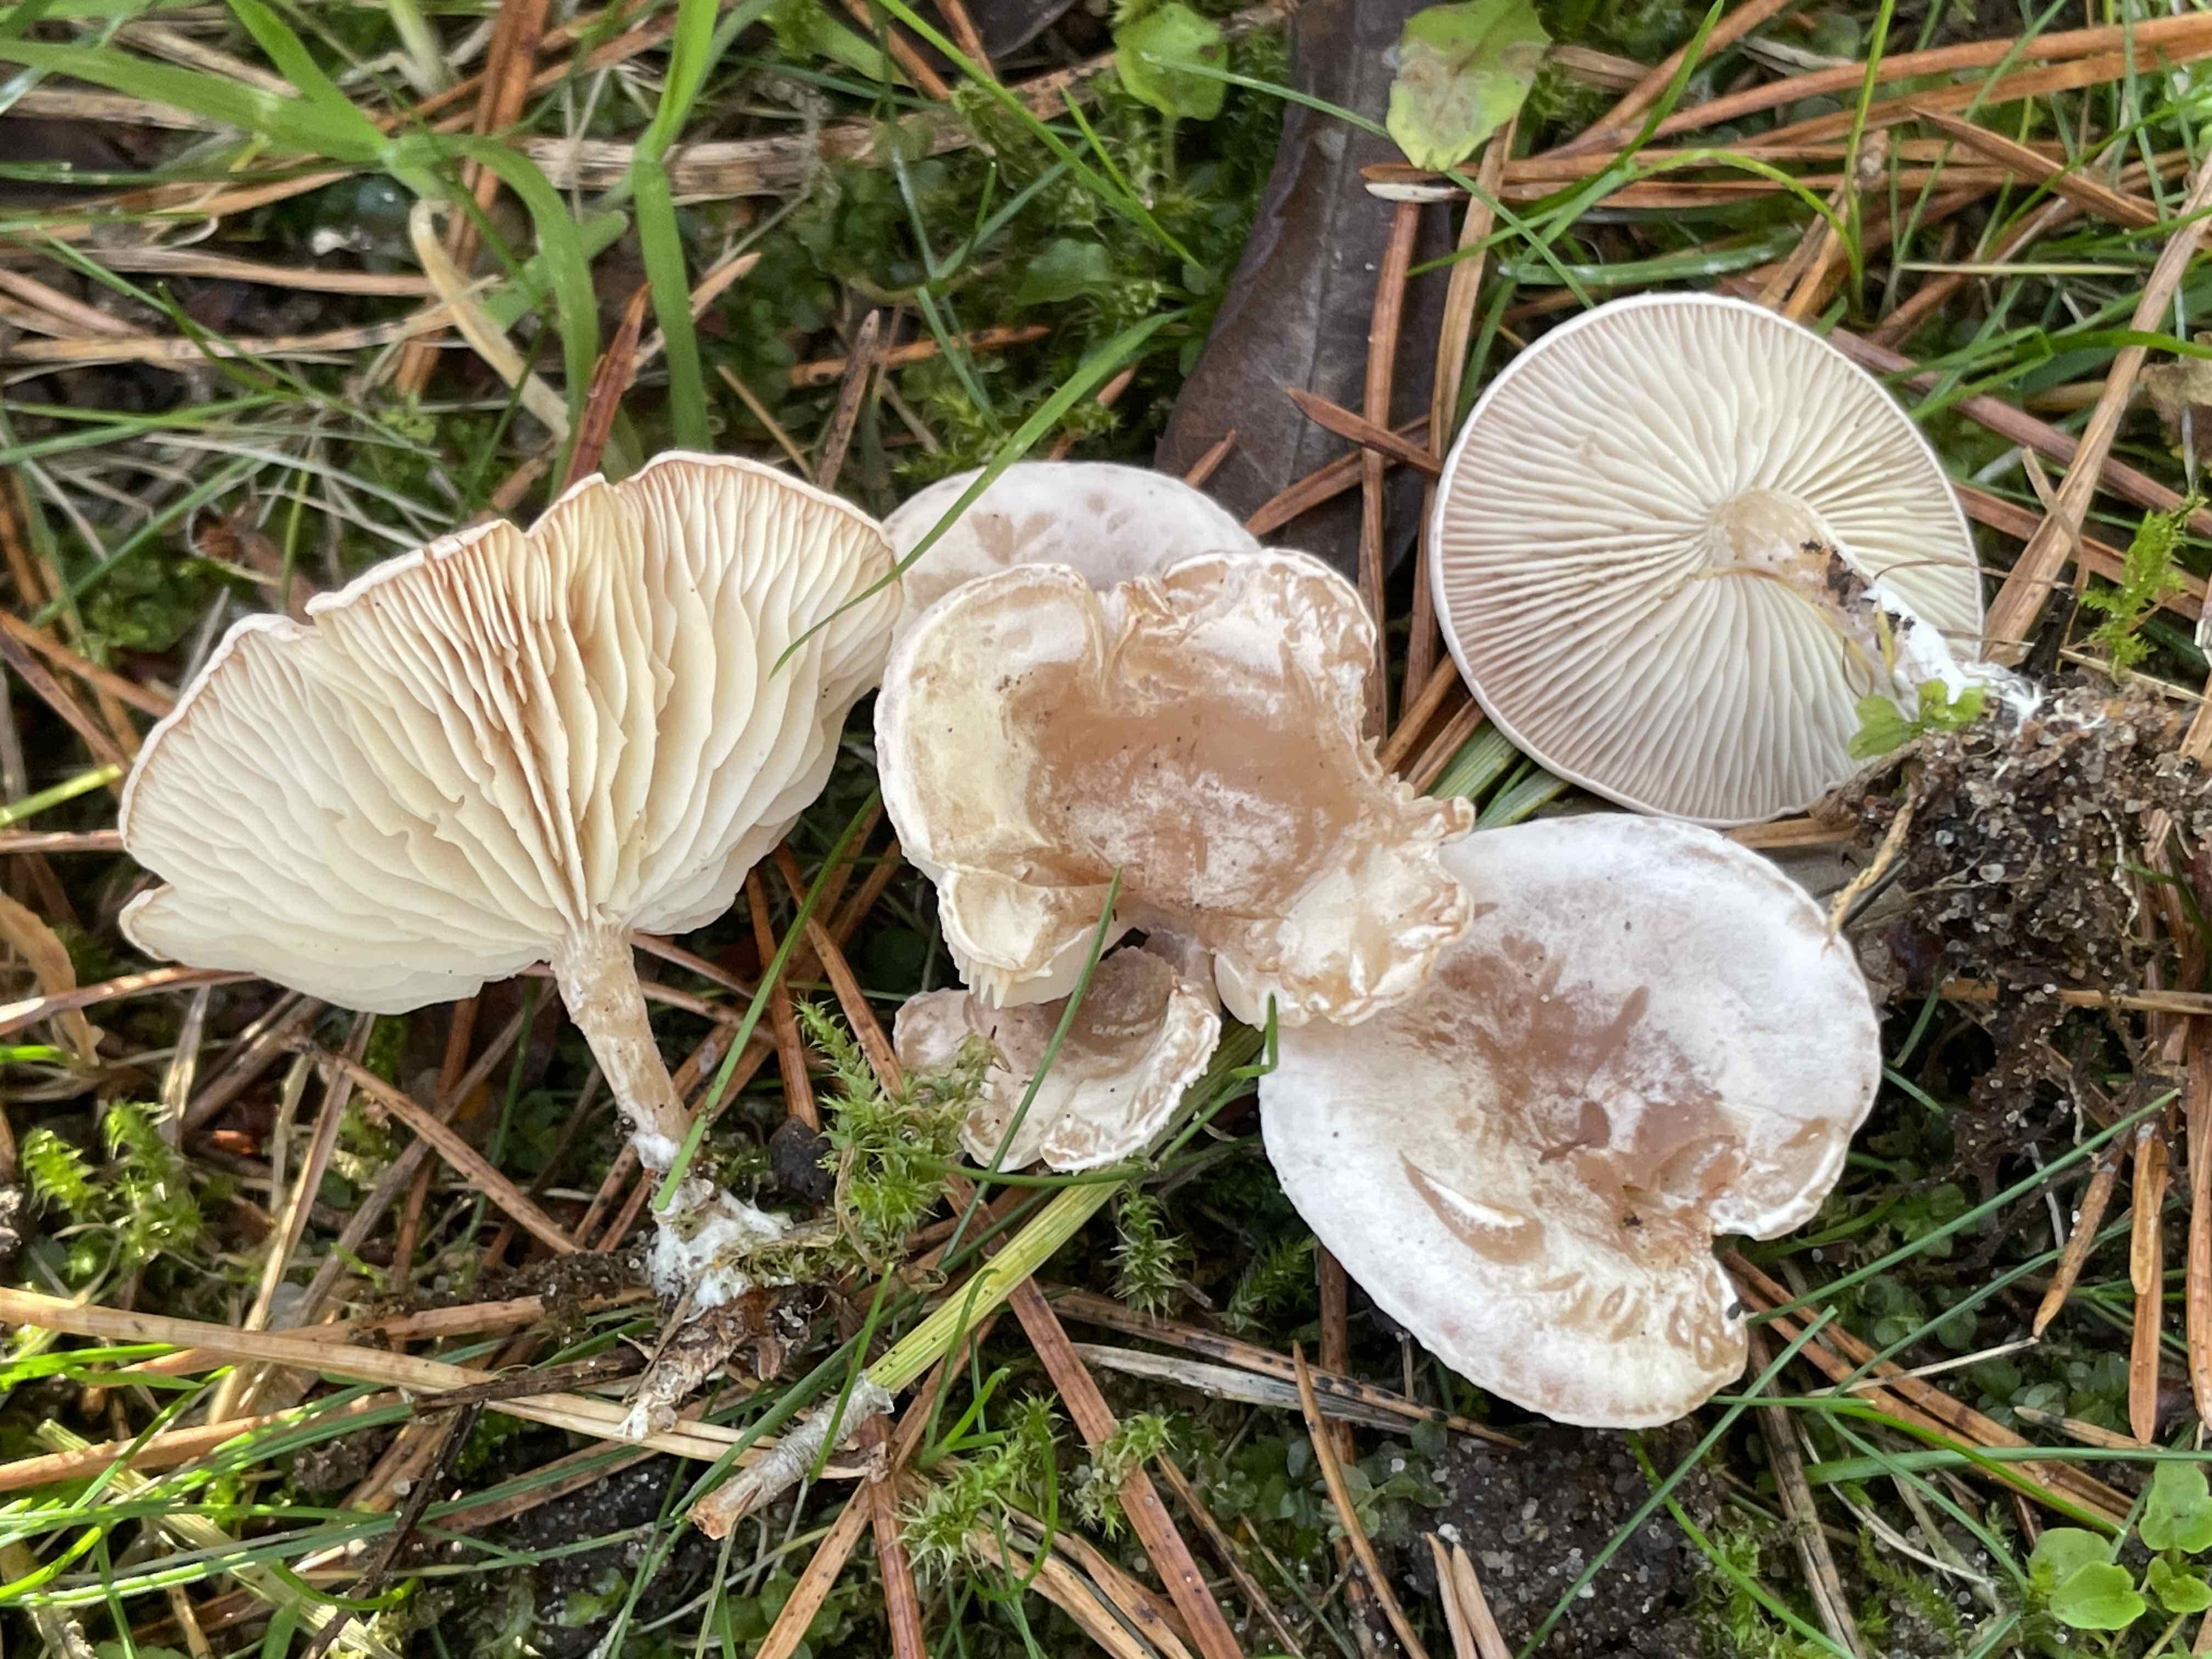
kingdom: Fungi
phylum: Basidiomycota
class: Agaricomycetes
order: Agaricales
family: Tricholomataceae
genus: Leucocybe
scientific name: Leucocybe
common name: tragthat
